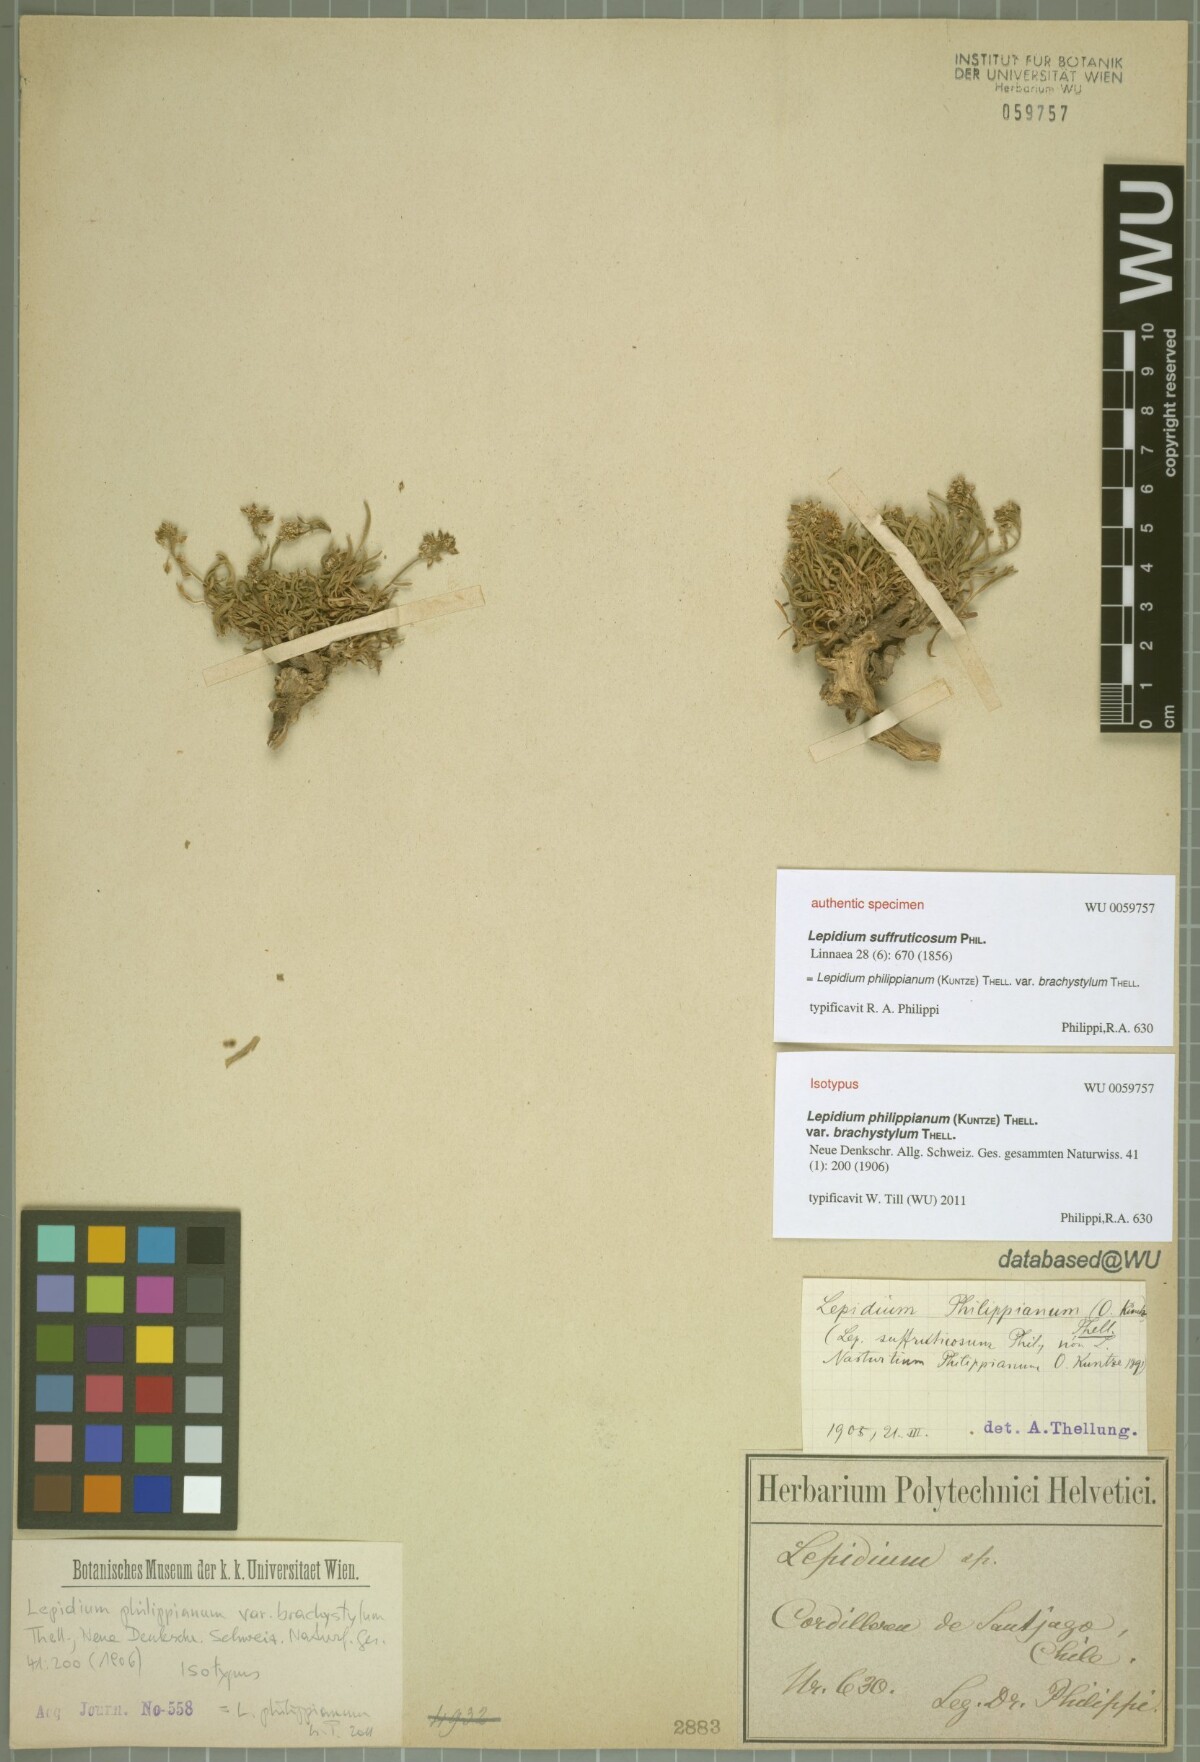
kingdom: Plantae
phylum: Tracheophyta
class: Magnoliopsida
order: Brassicales
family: Brassicaceae
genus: Lepidium
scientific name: Lepidium philippianum
